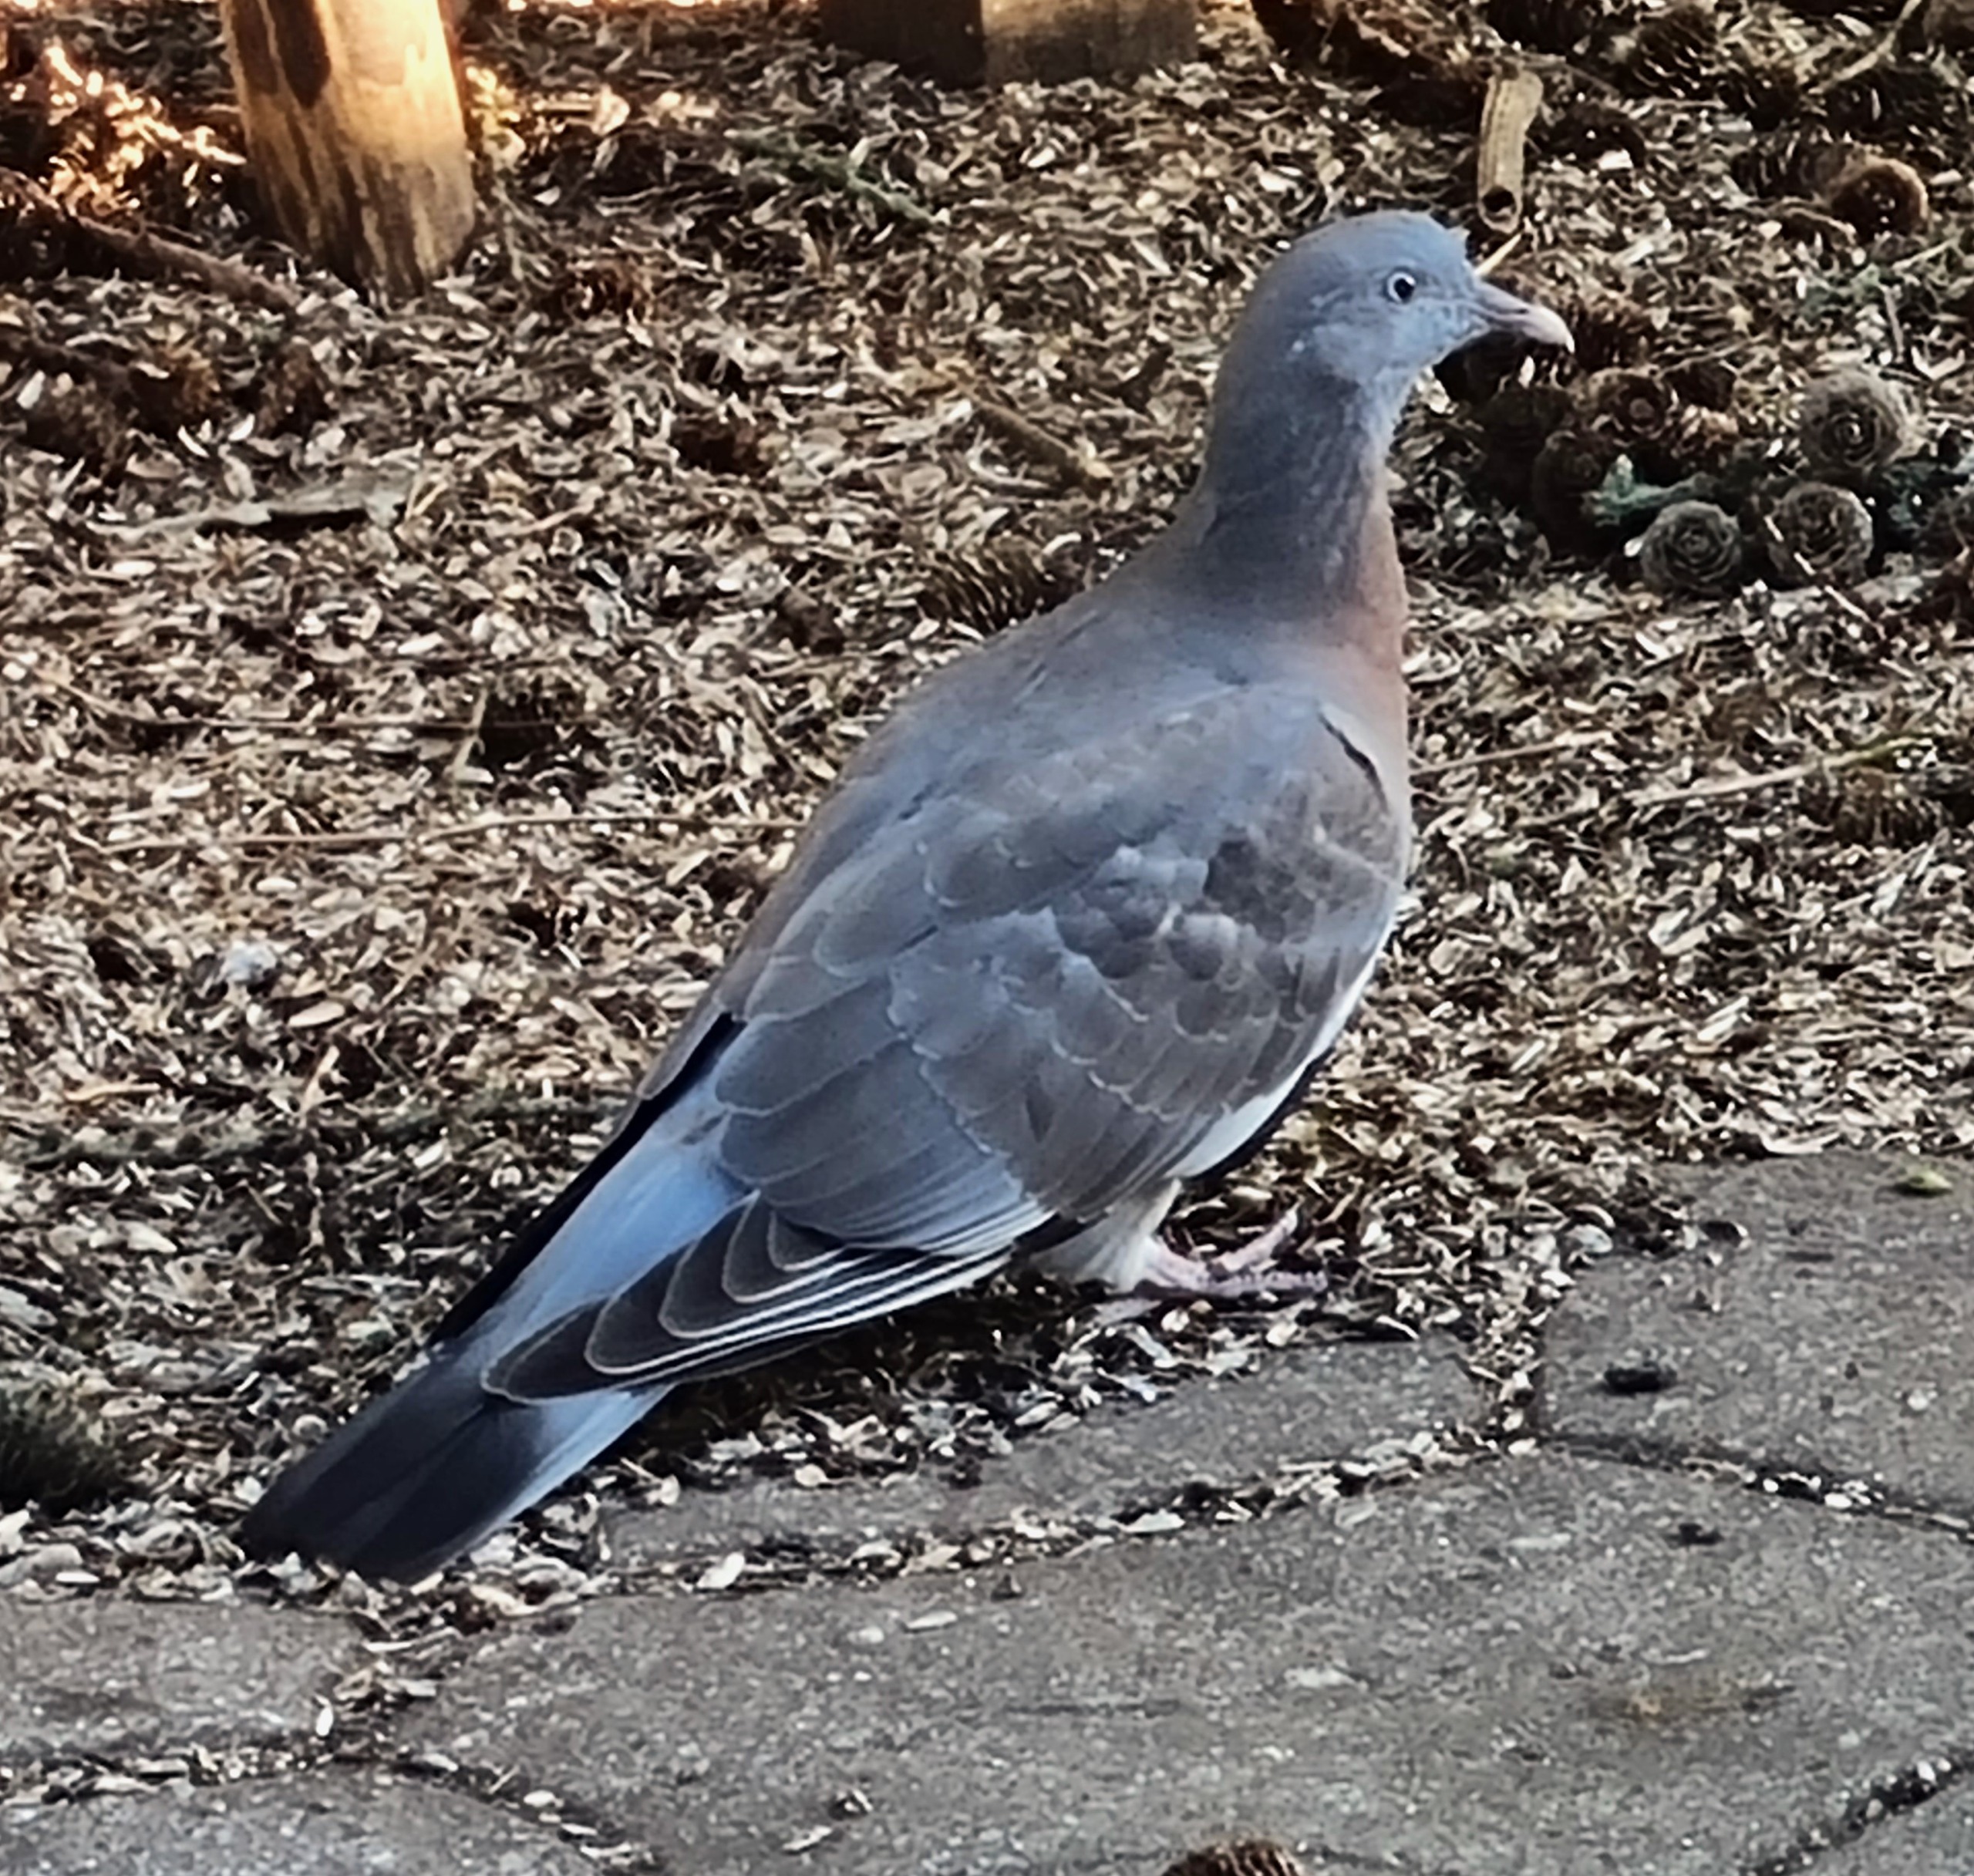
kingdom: Animalia
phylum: Chordata
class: Aves
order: Columbiformes
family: Columbidae
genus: Columba
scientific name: Columba palumbus
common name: Ringdue
